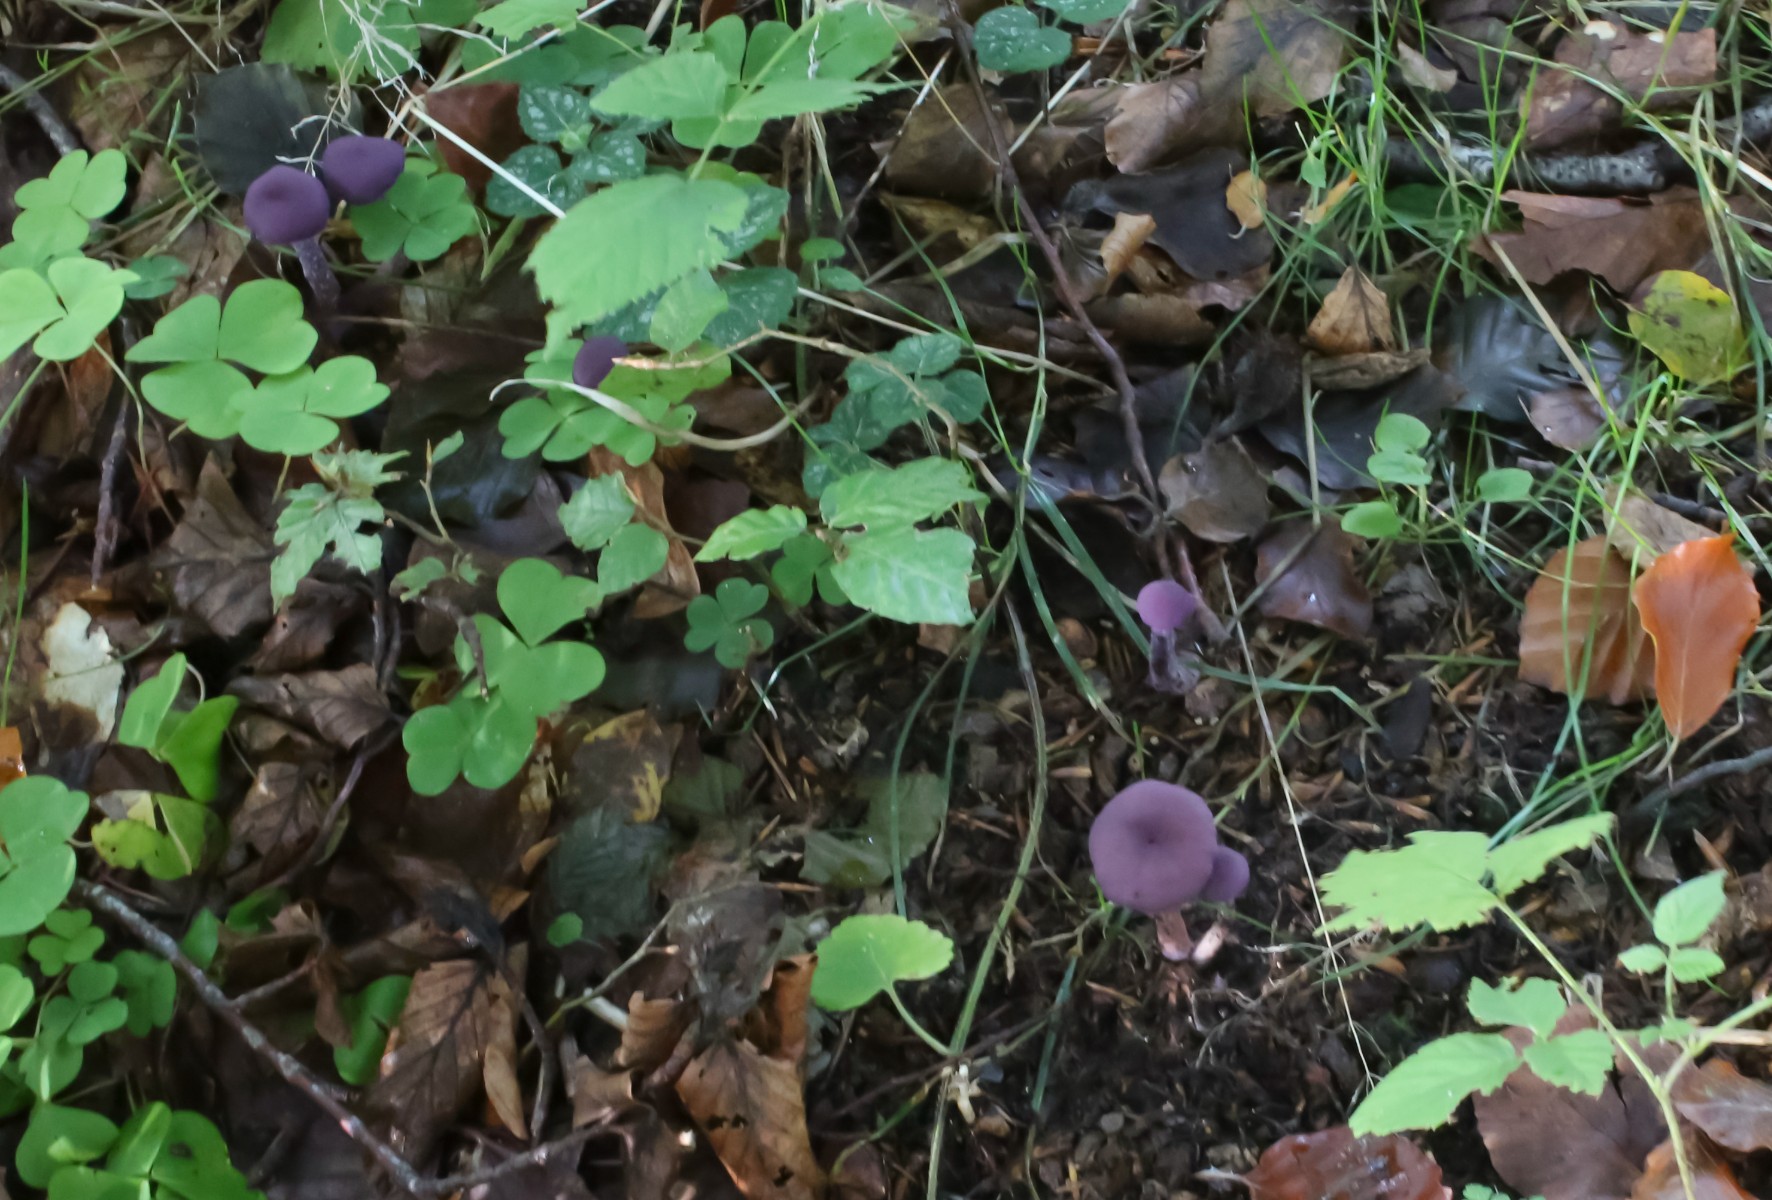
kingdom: Fungi
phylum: Basidiomycota
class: Agaricomycetes
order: Agaricales
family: Hydnangiaceae
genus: Laccaria
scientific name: Laccaria amethystina
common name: violet ametysthat
